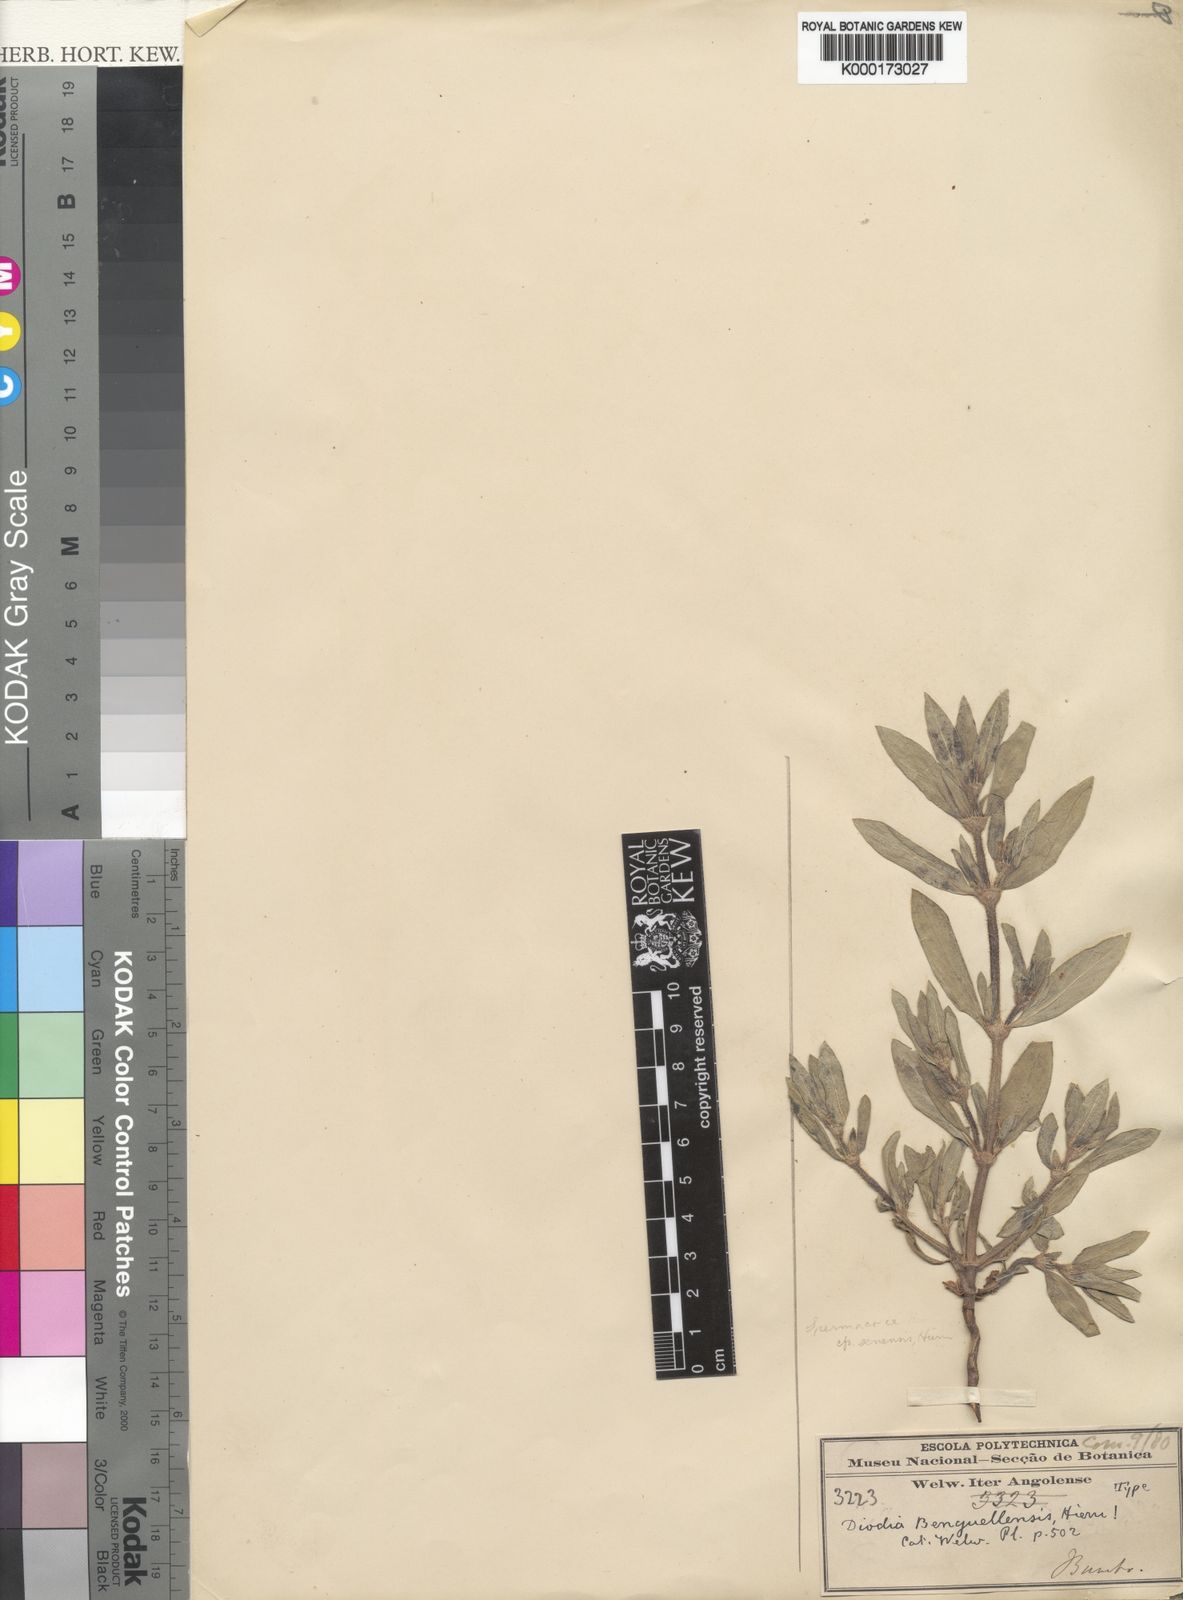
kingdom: Plantae
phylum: Tracheophyta
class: Magnoliopsida
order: Gentianales
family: Rubiaceae
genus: Spermacoce
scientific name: Spermacoce senensis
